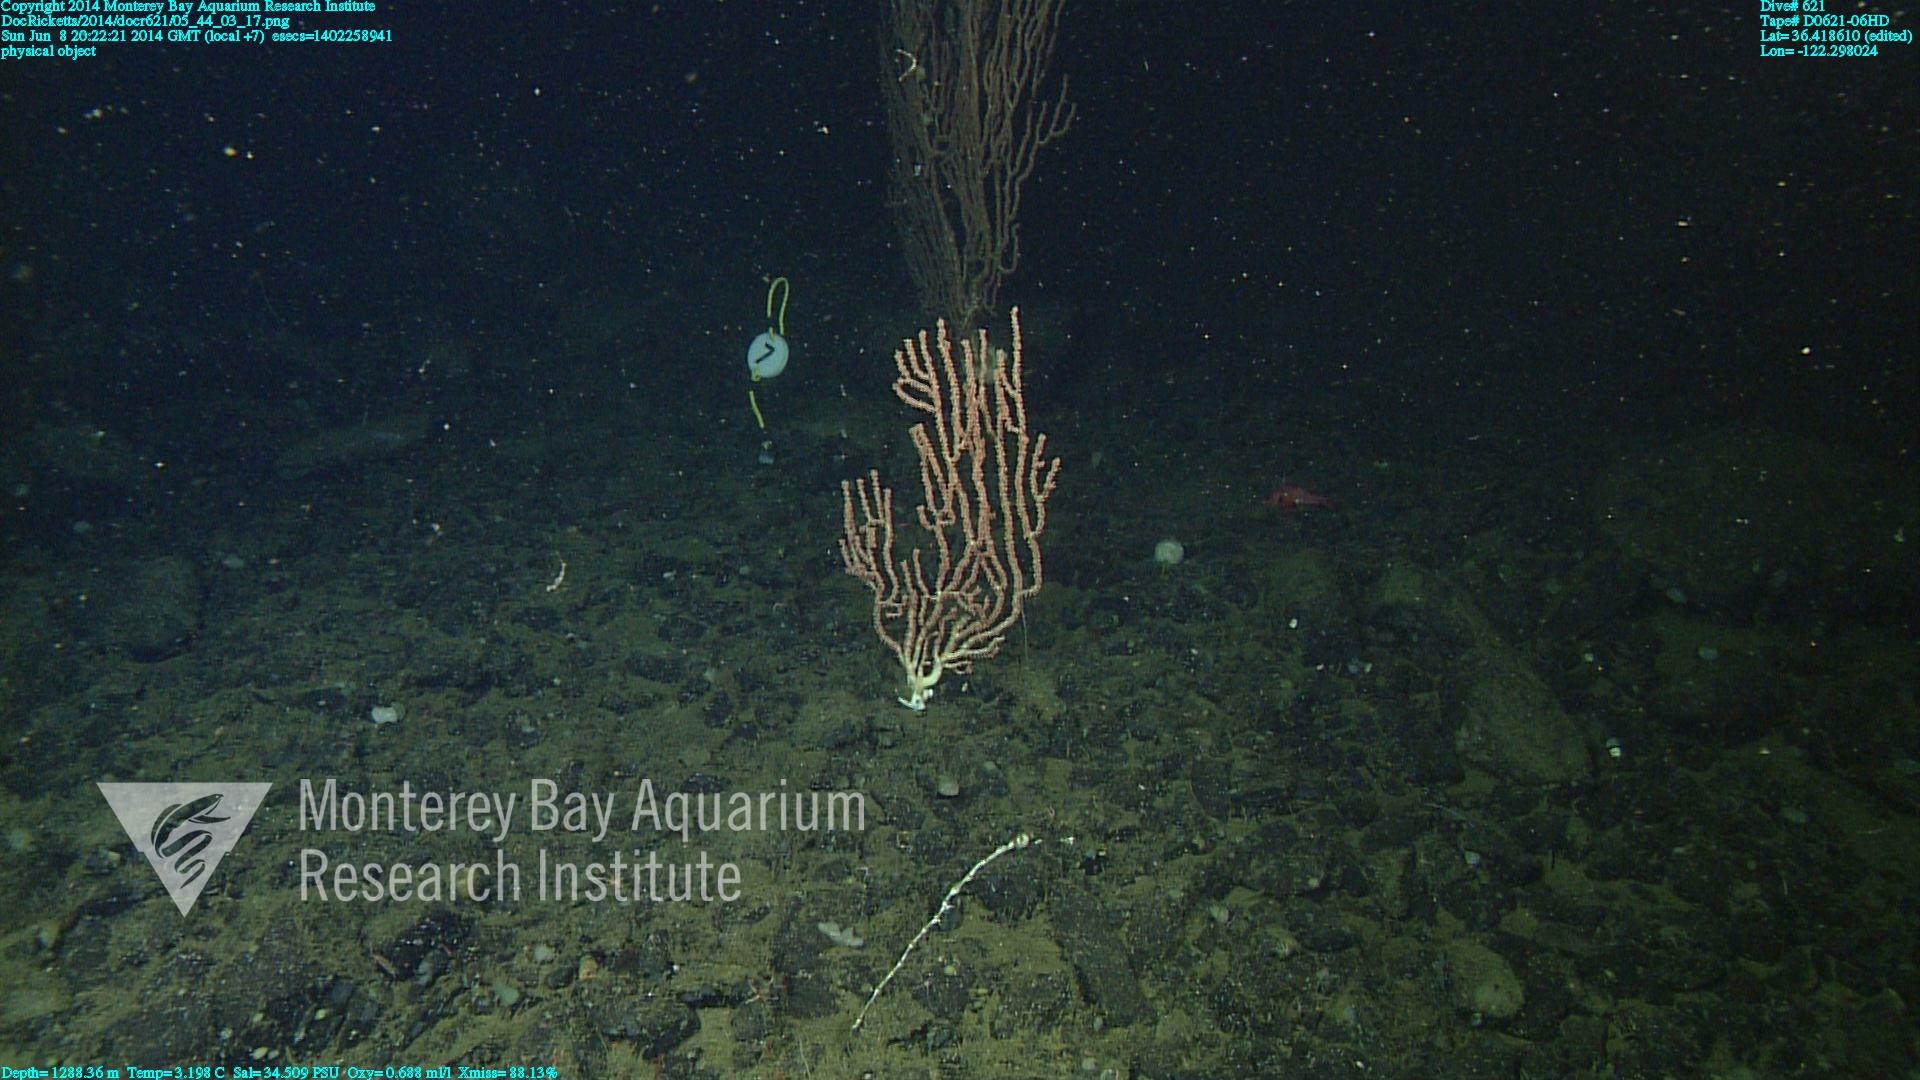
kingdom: Animalia
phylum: Cnidaria
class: Anthozoa
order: Scleralcyonacea
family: Keratoisididae
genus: Keratoisis
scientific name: Keratoisis
